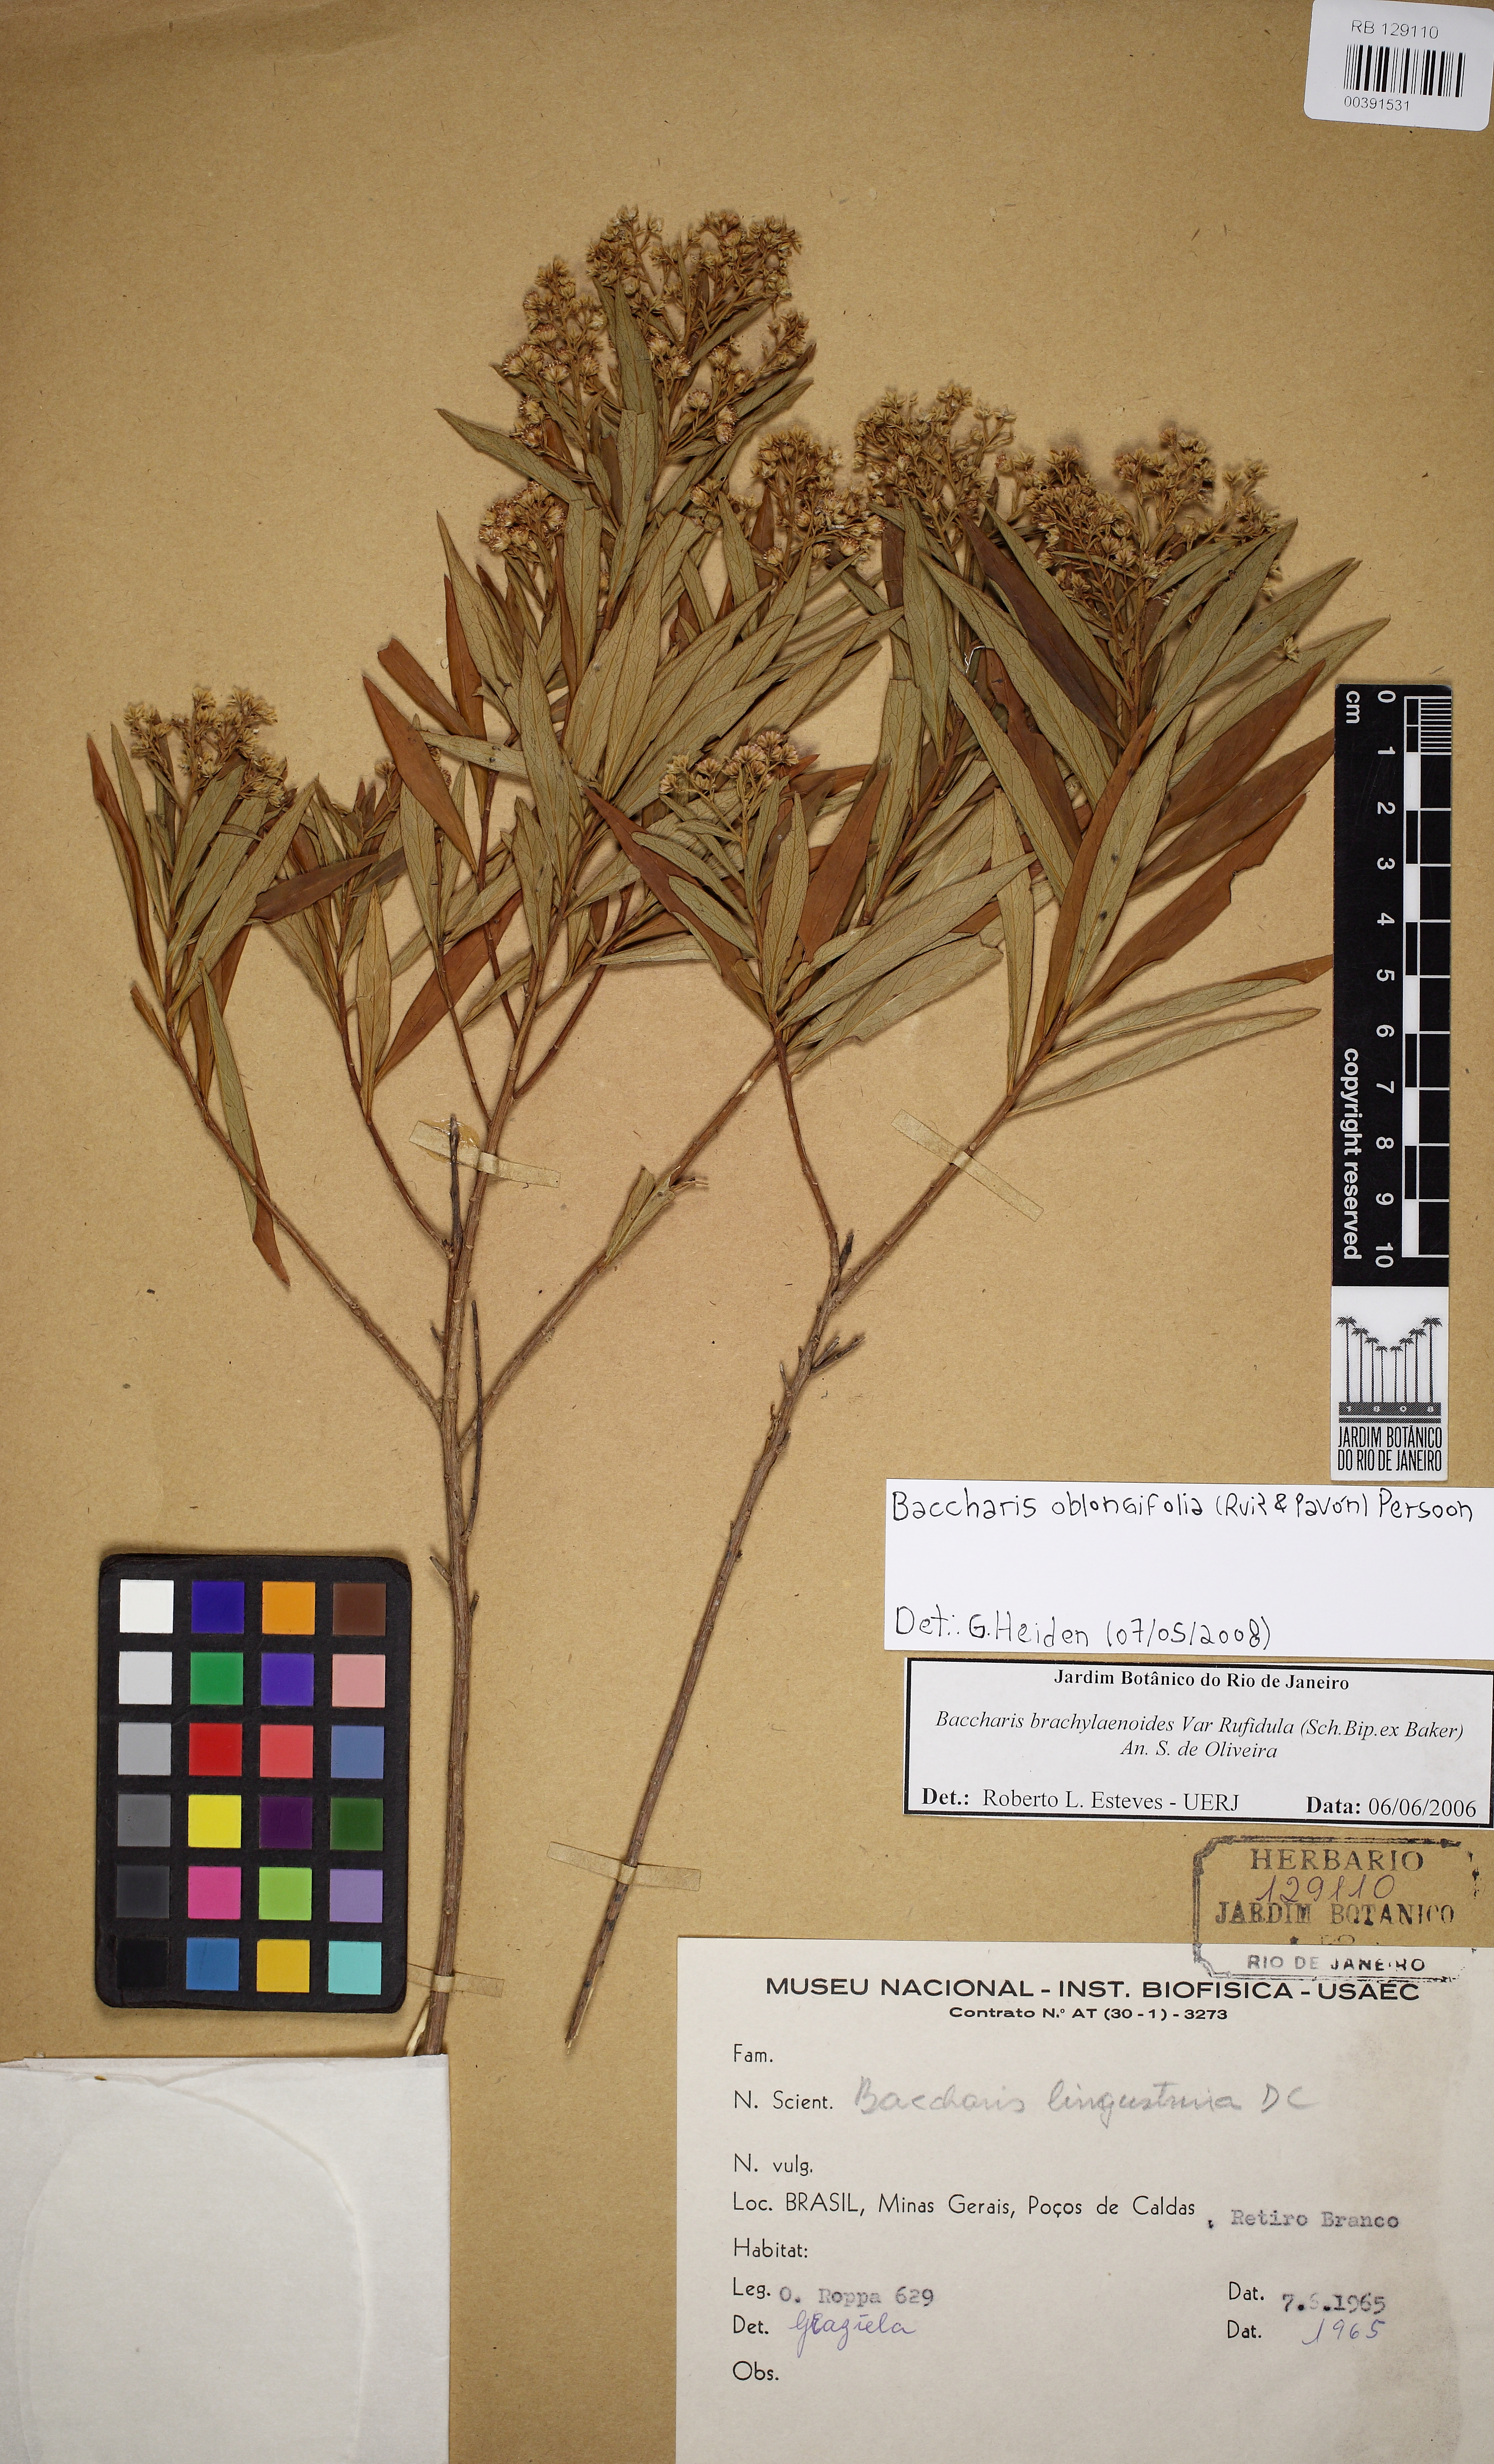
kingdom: Plantae
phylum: Tracheophyta
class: Magnoliopsida
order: Asterales
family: Asteraceae
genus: Baccharis
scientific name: Baccharis oblongifolia
